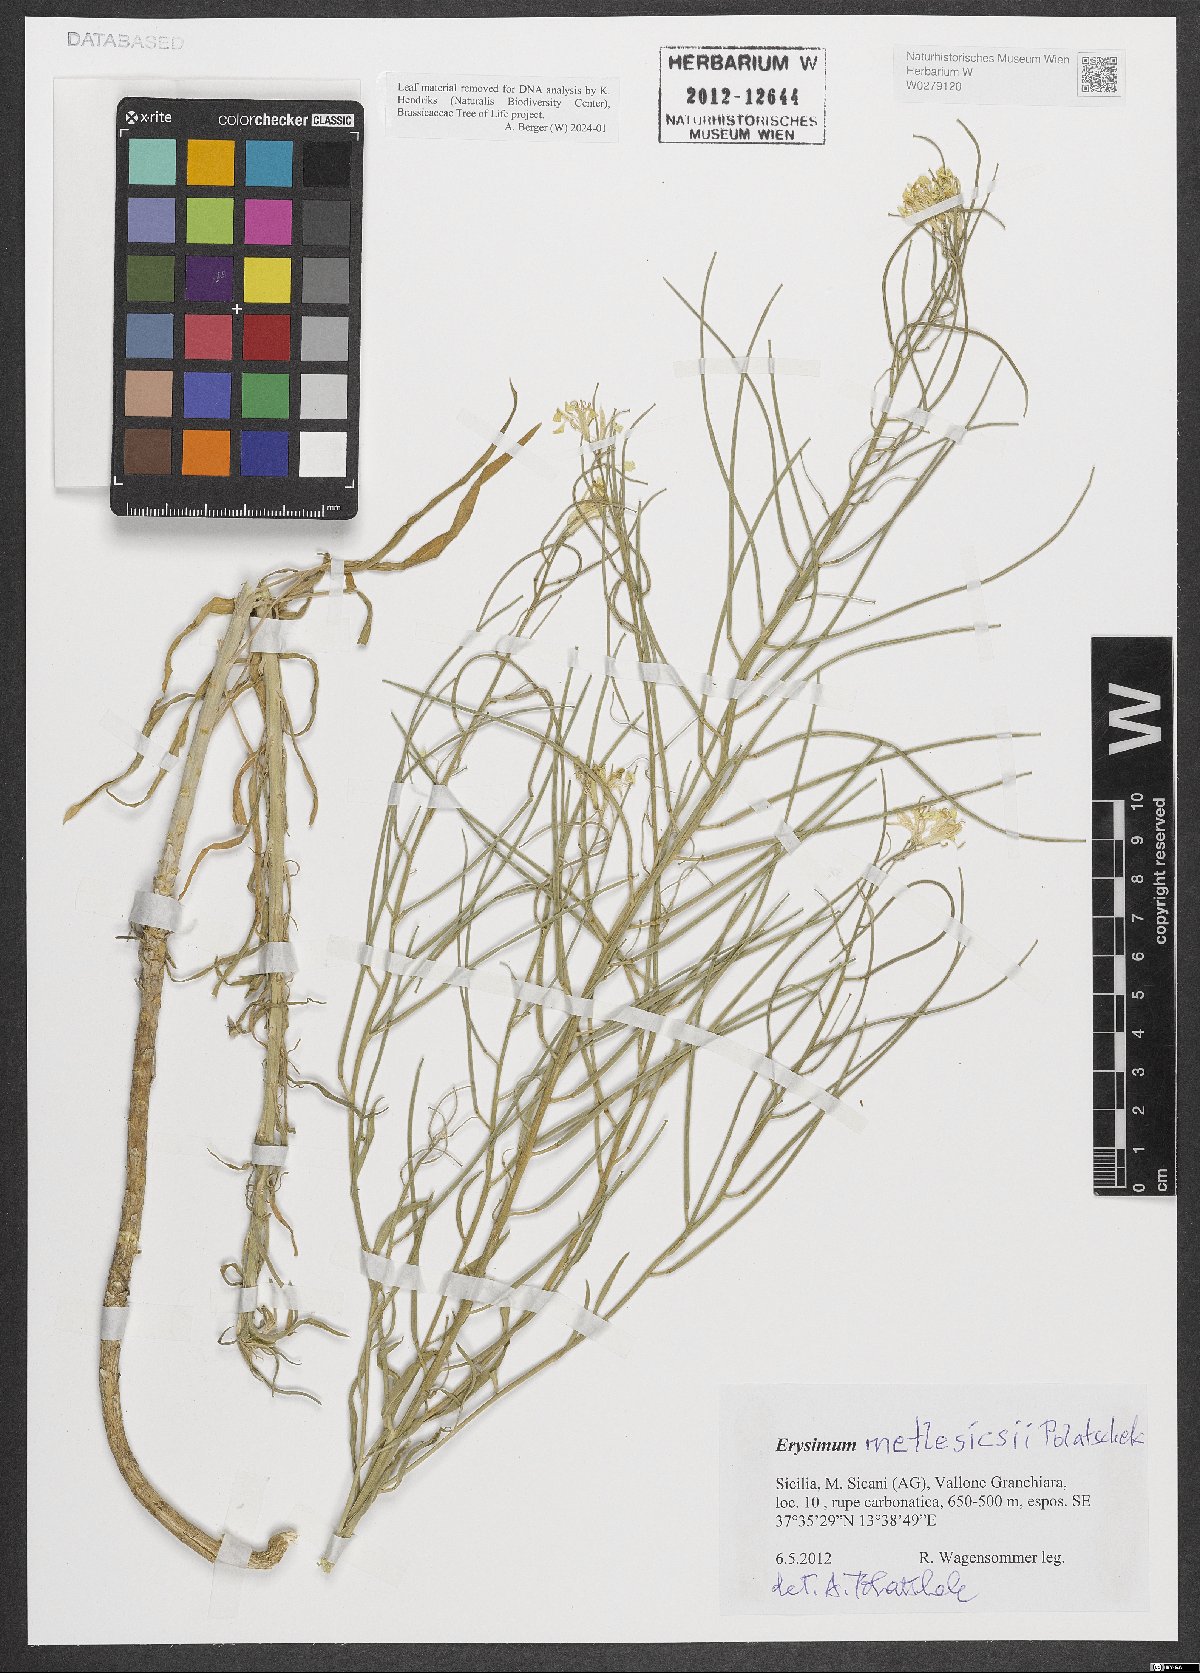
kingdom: Plantae
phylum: Tracheophyta
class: Magnoliopsida
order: Brassicales
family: Brassicaceae
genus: Erysimum
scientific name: Erysimum metlesicsii
